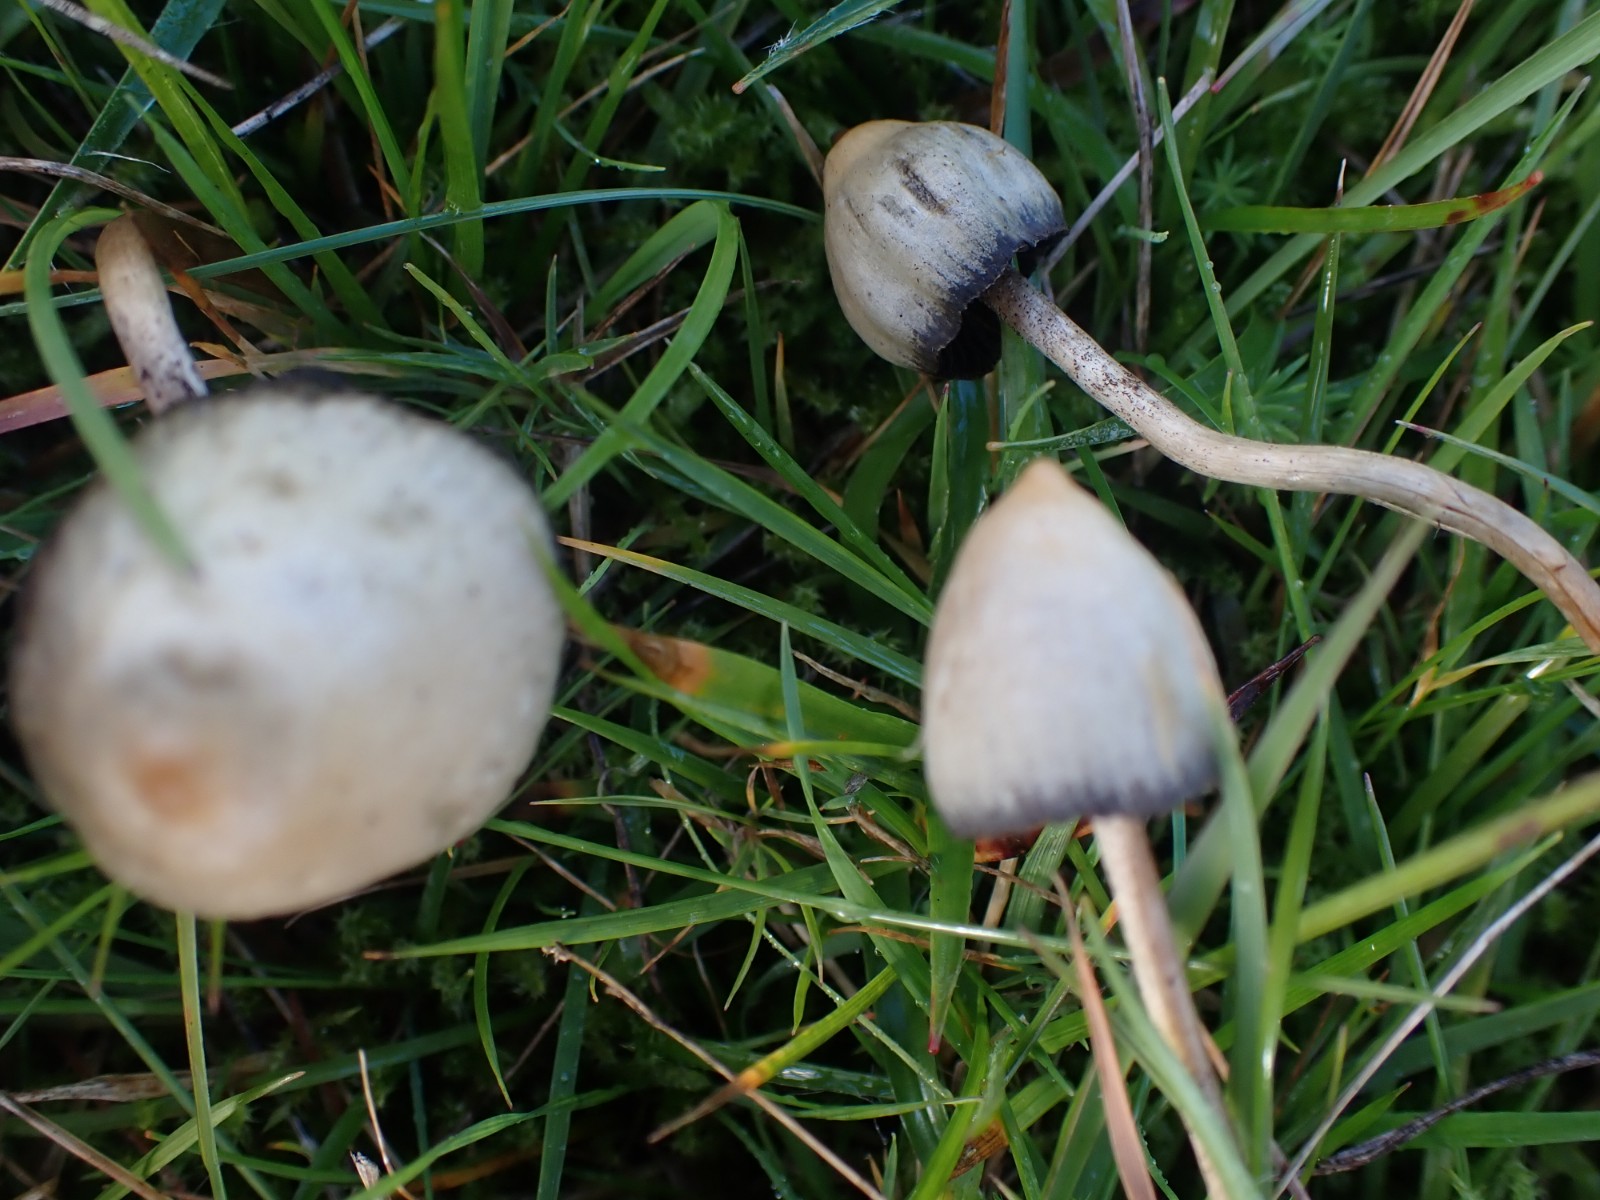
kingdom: Fungi
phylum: Basidiomycota
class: Agaricomycetes
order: Agaricales
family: Hymenogastraceae
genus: Psilocybe
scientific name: Psilocybe semilanceata
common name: spids nøgenhat
